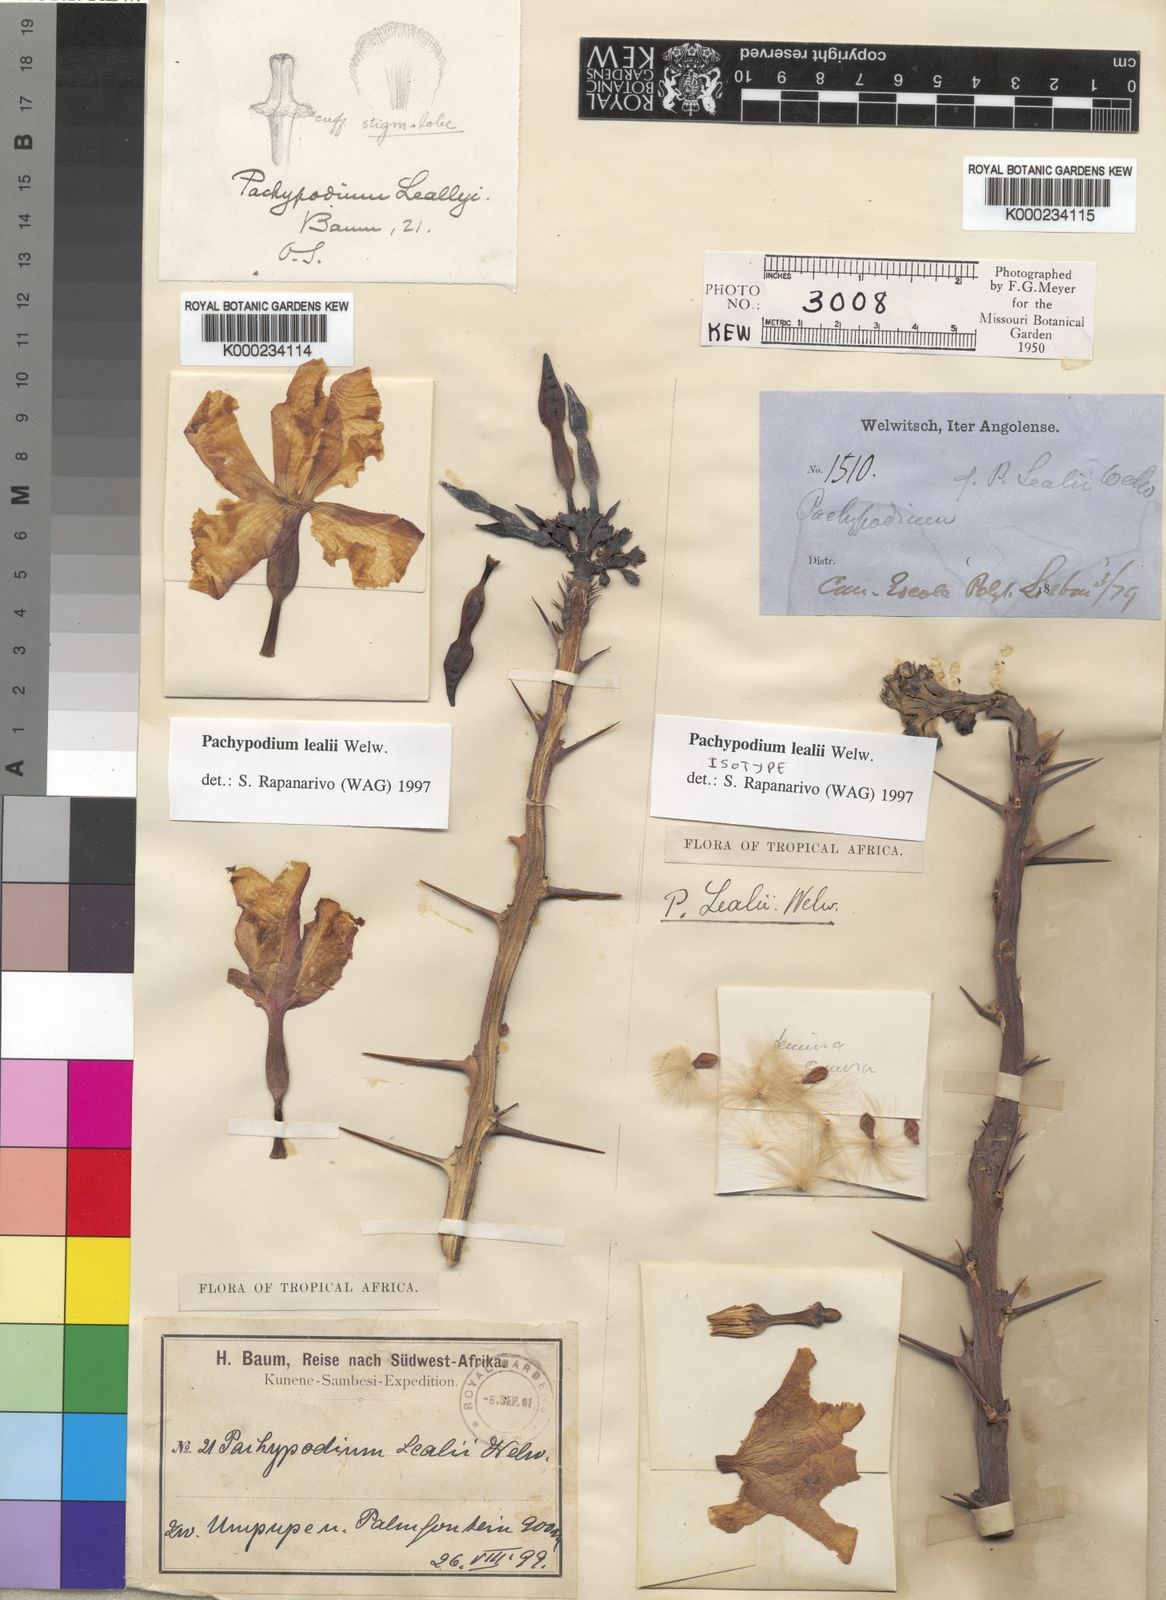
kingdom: Plantae
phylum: Tracheophyta
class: Magnoliopsida
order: Gentianales
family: Apocynaceae
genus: Pachypodium
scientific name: Pachypodium lealii
